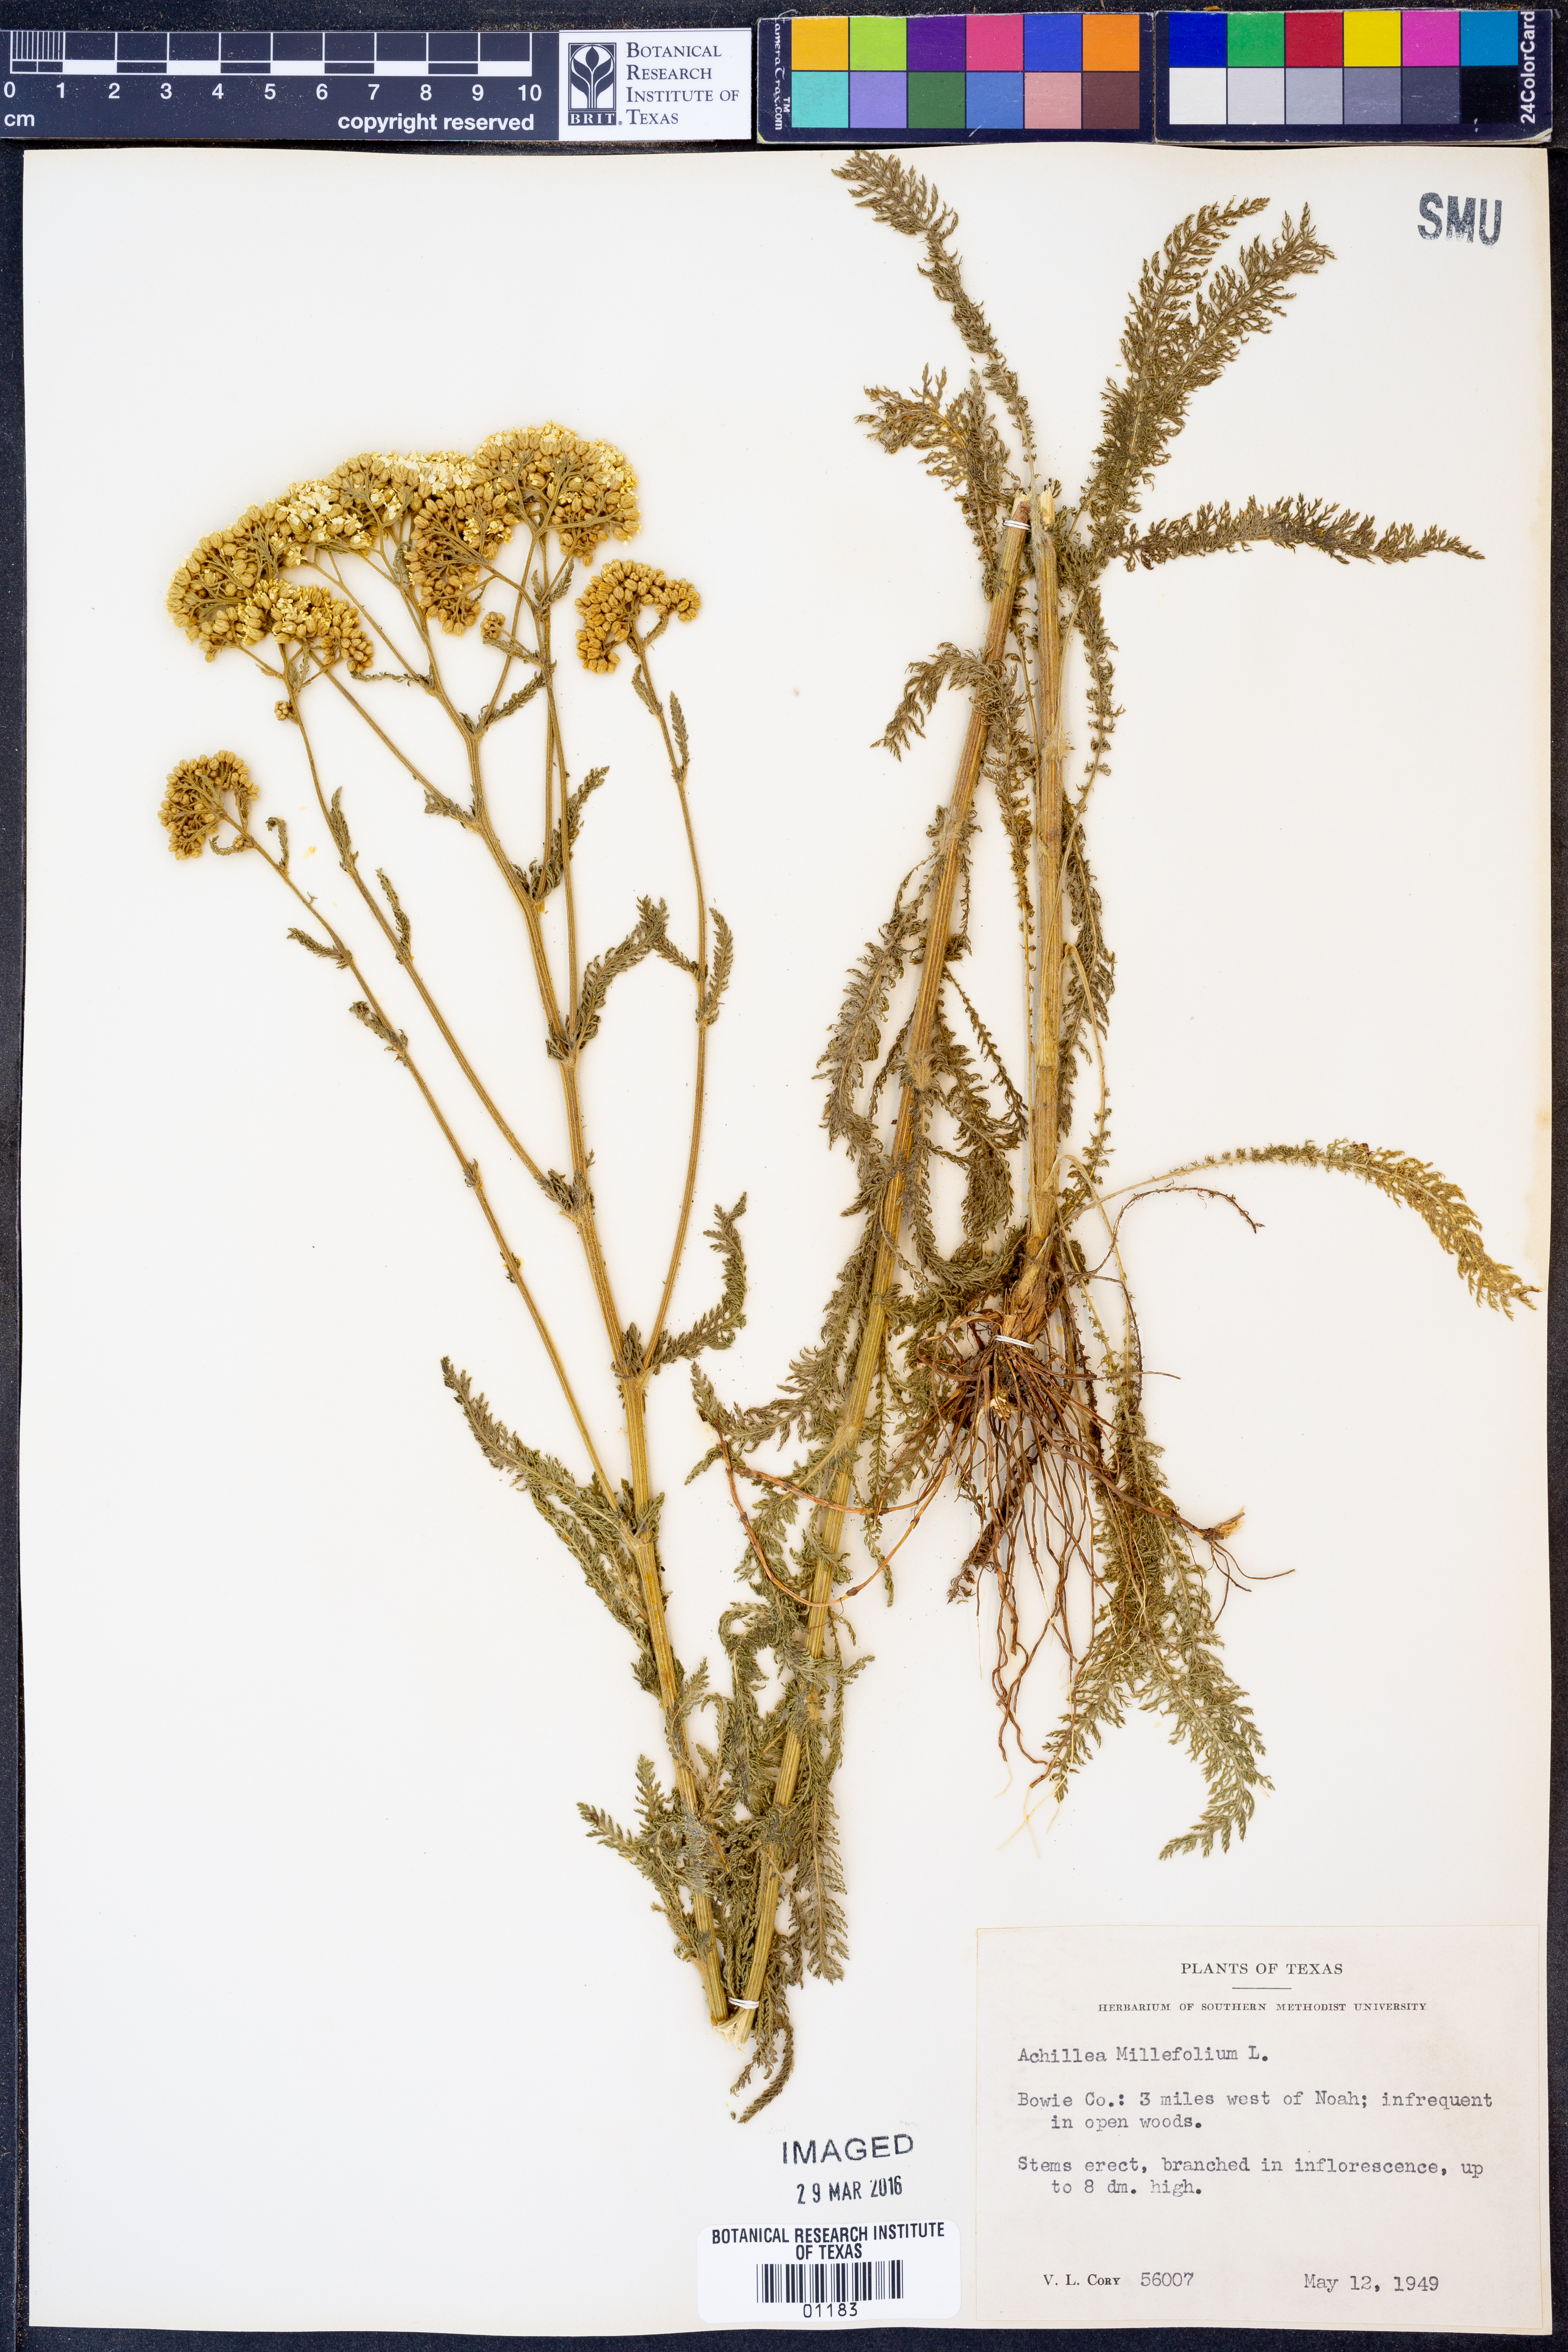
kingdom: Plantae
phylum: Tracheophyta
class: Magnoliopsida
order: Asterales
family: Asteraceae
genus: Achillea
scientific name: Achillea millefolium
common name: Yarrow
